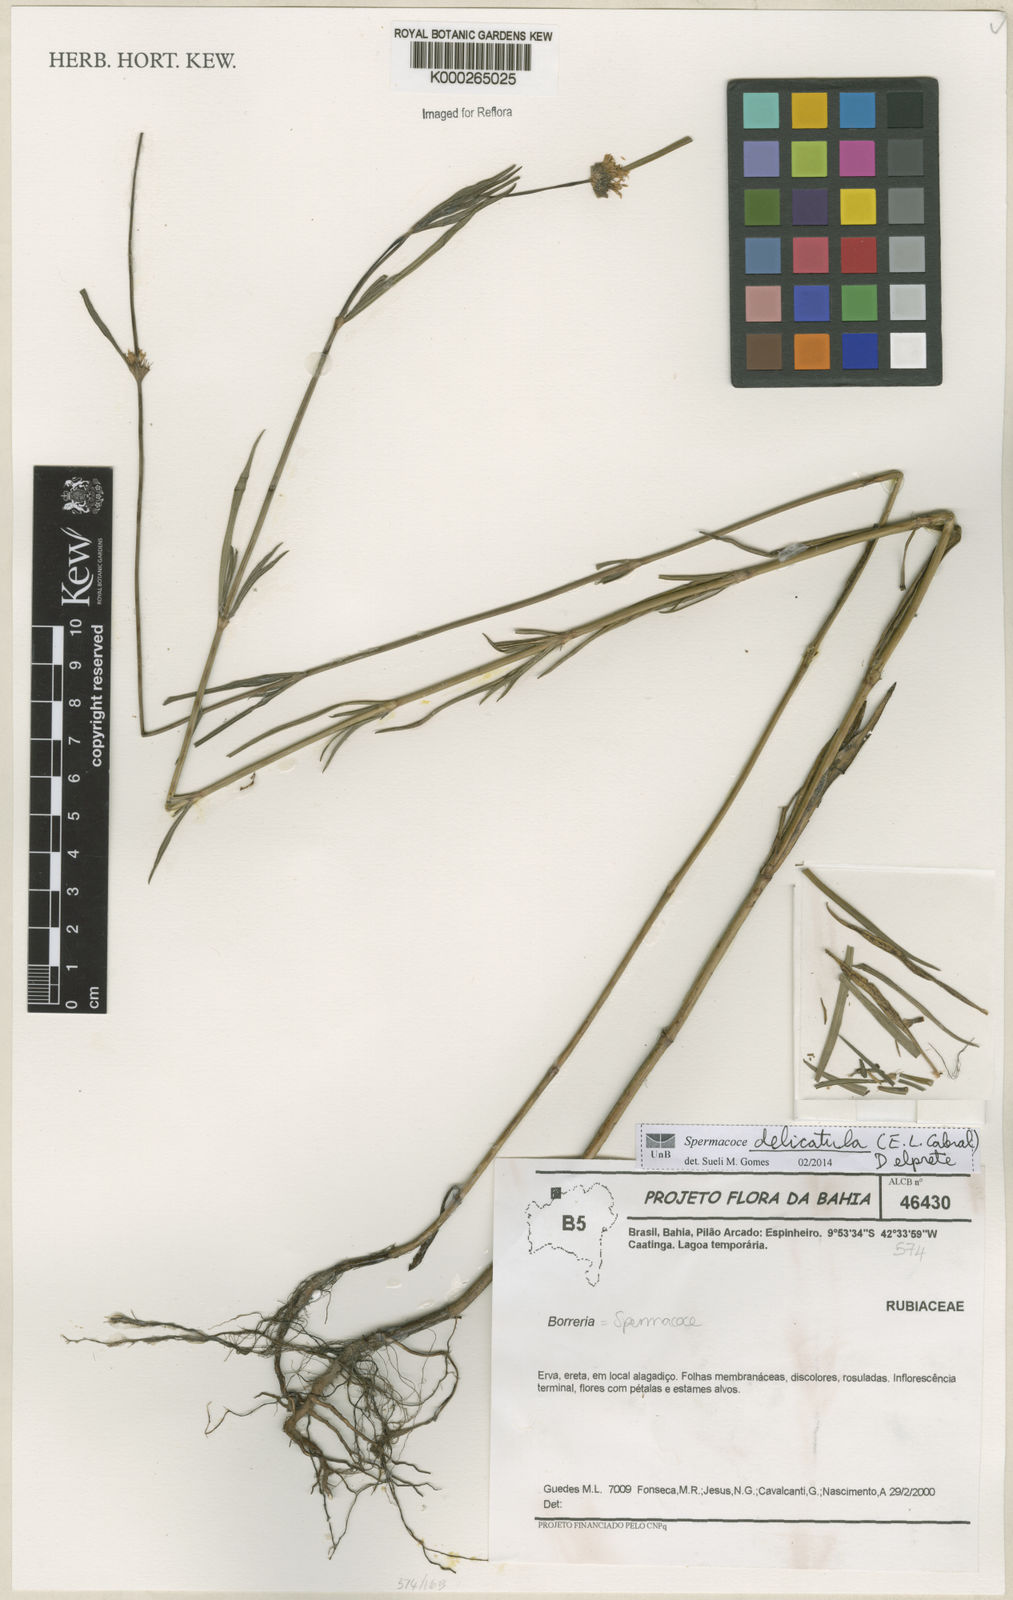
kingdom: Plantae
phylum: Tracheophyta
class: Magnoliopsida
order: Gentianales
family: Rubiaceae
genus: Spermacoce
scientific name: Spermacoce
